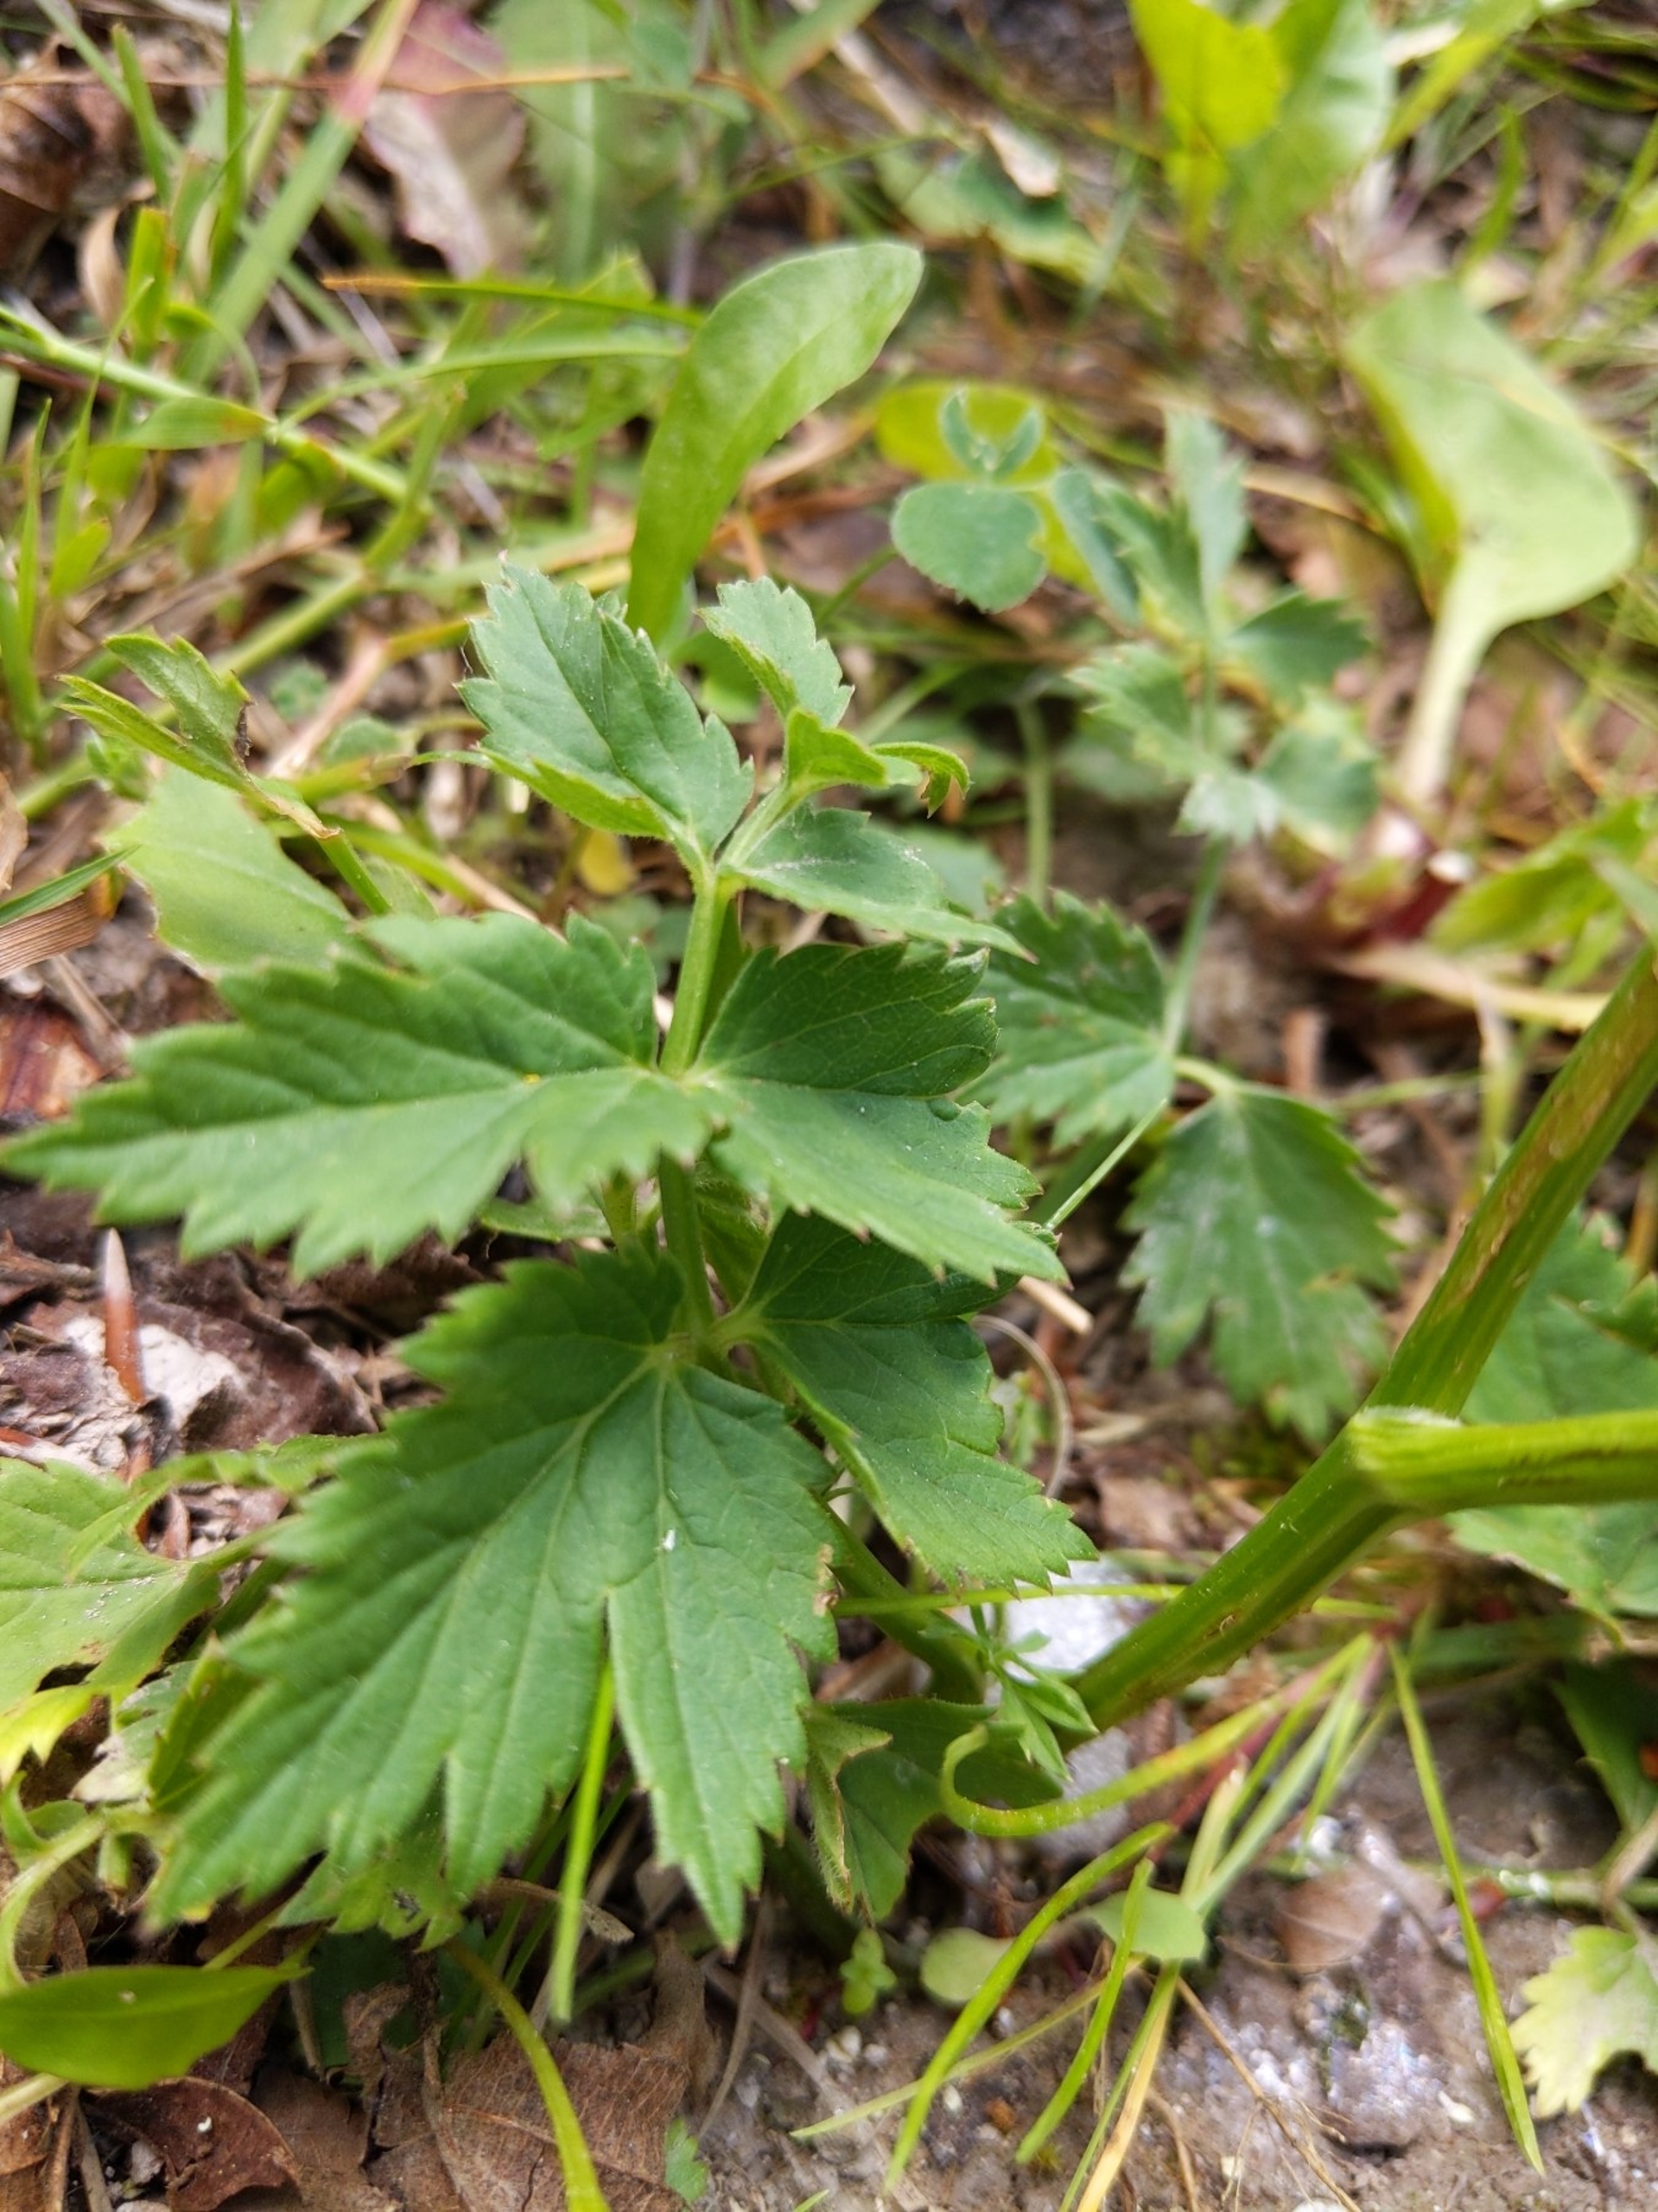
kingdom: Plantae
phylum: Tracheophyta
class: Magnoliopsida
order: Apiales
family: Apiaceae
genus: Pimpinella
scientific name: Pimpinella major
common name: Stor pimpinelle
